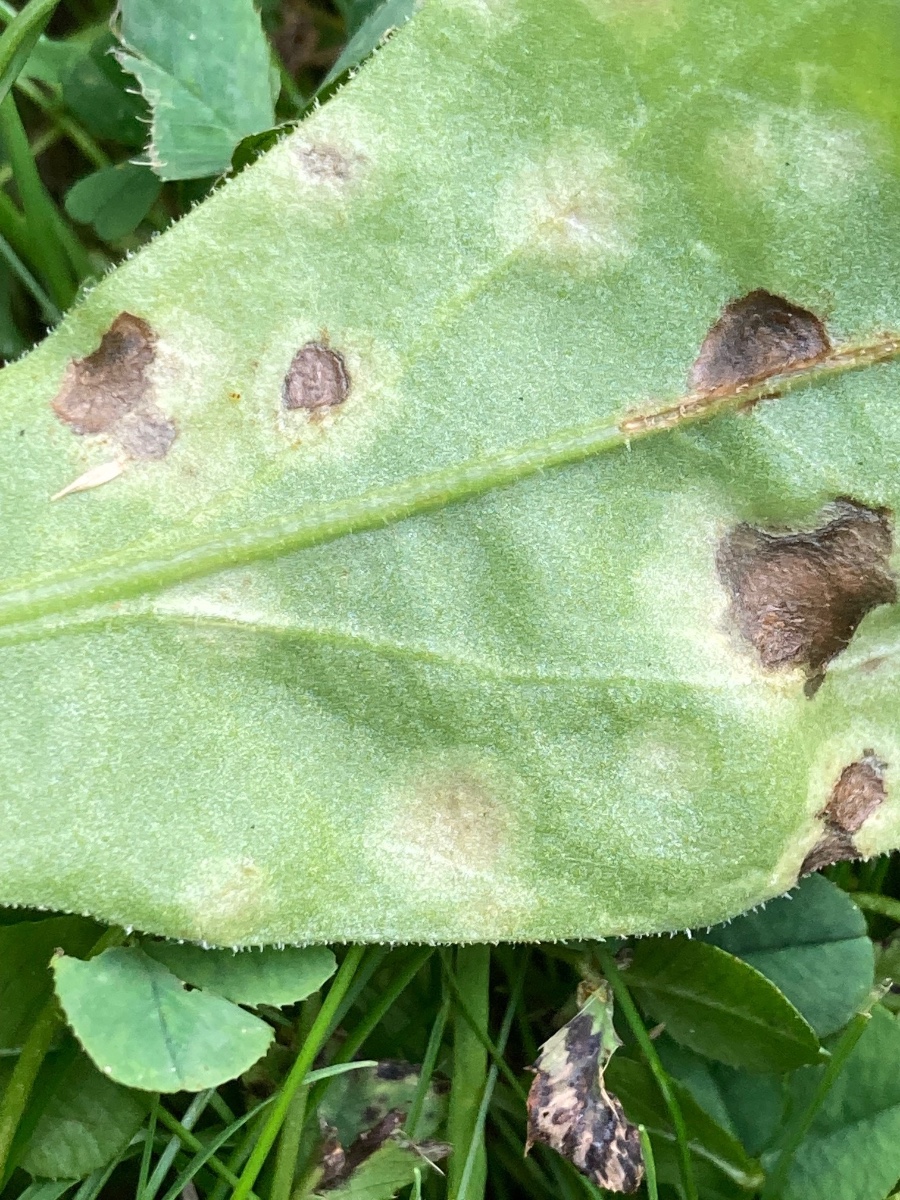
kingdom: Fungi
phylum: Basidiomycota
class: Exobasidiomycetes
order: Entylomatales
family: Entylomataceae
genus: Entyloma
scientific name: Entyloma calendulae
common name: Calendula smut
